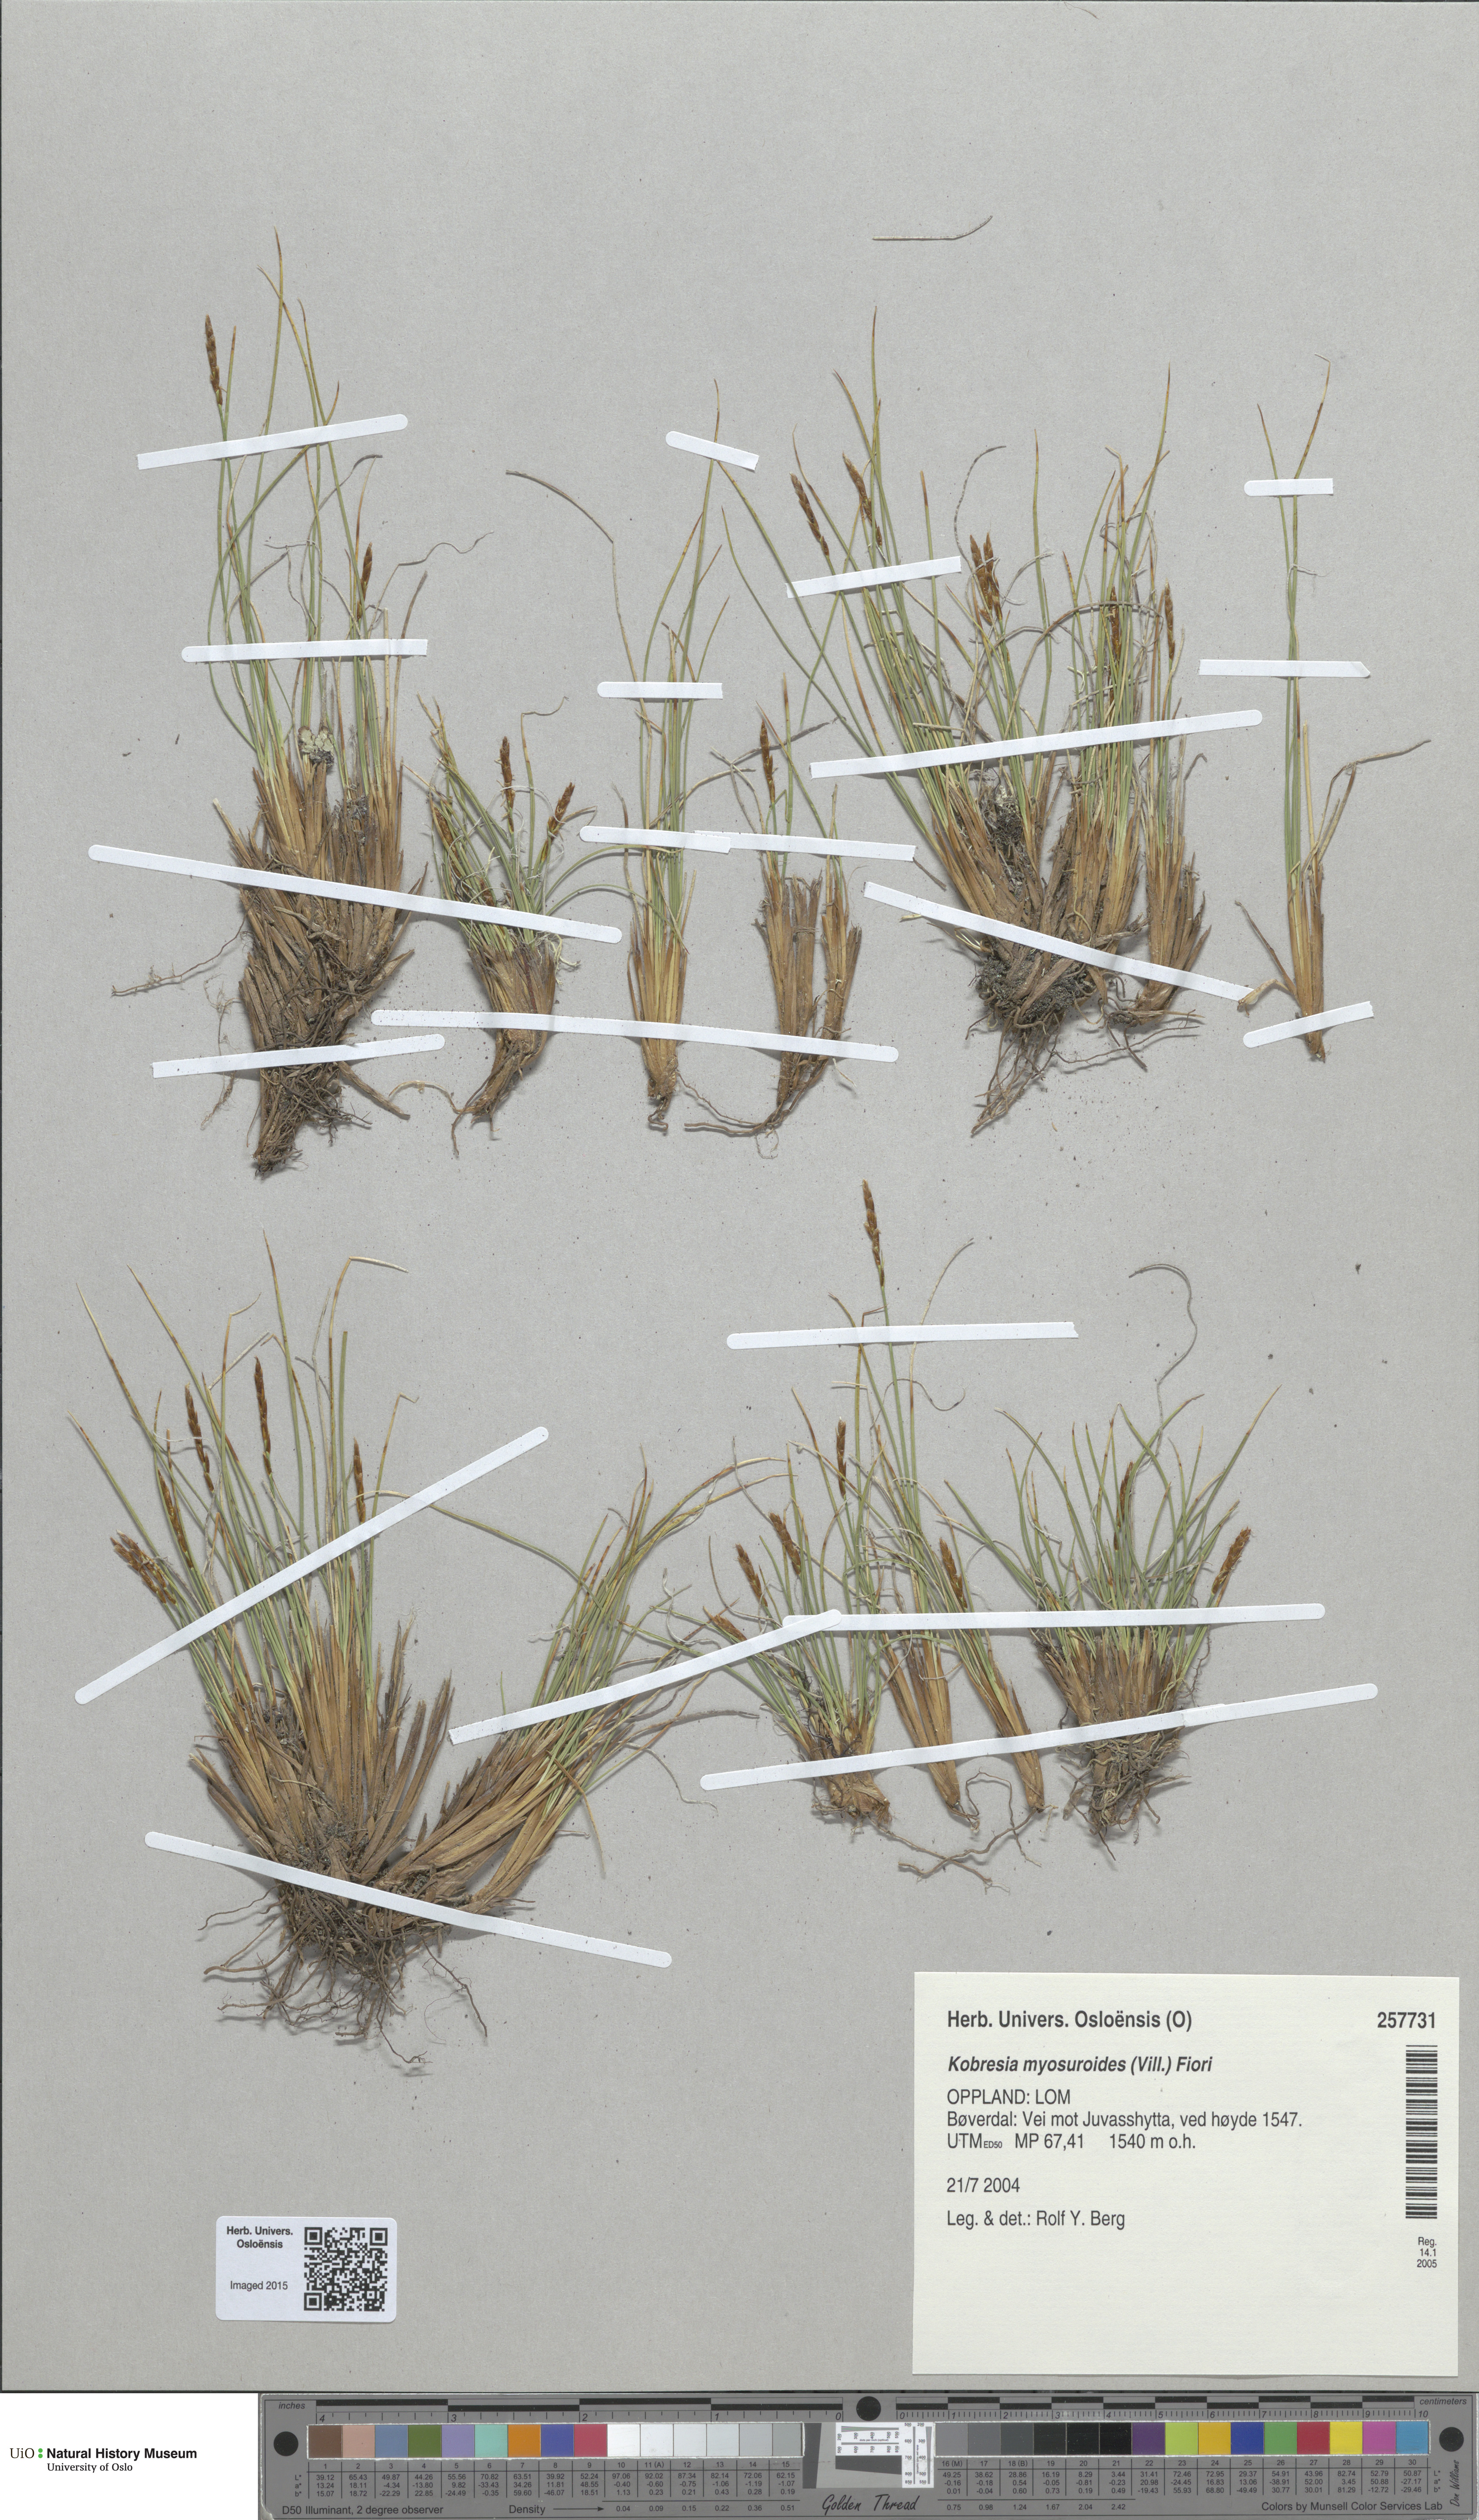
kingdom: Plantae
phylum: Tracheophyta
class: Liliopsida
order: Poales
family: Cyperaceae
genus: Carex
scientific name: Carex myosuroides
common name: Bellard's bog sedge
